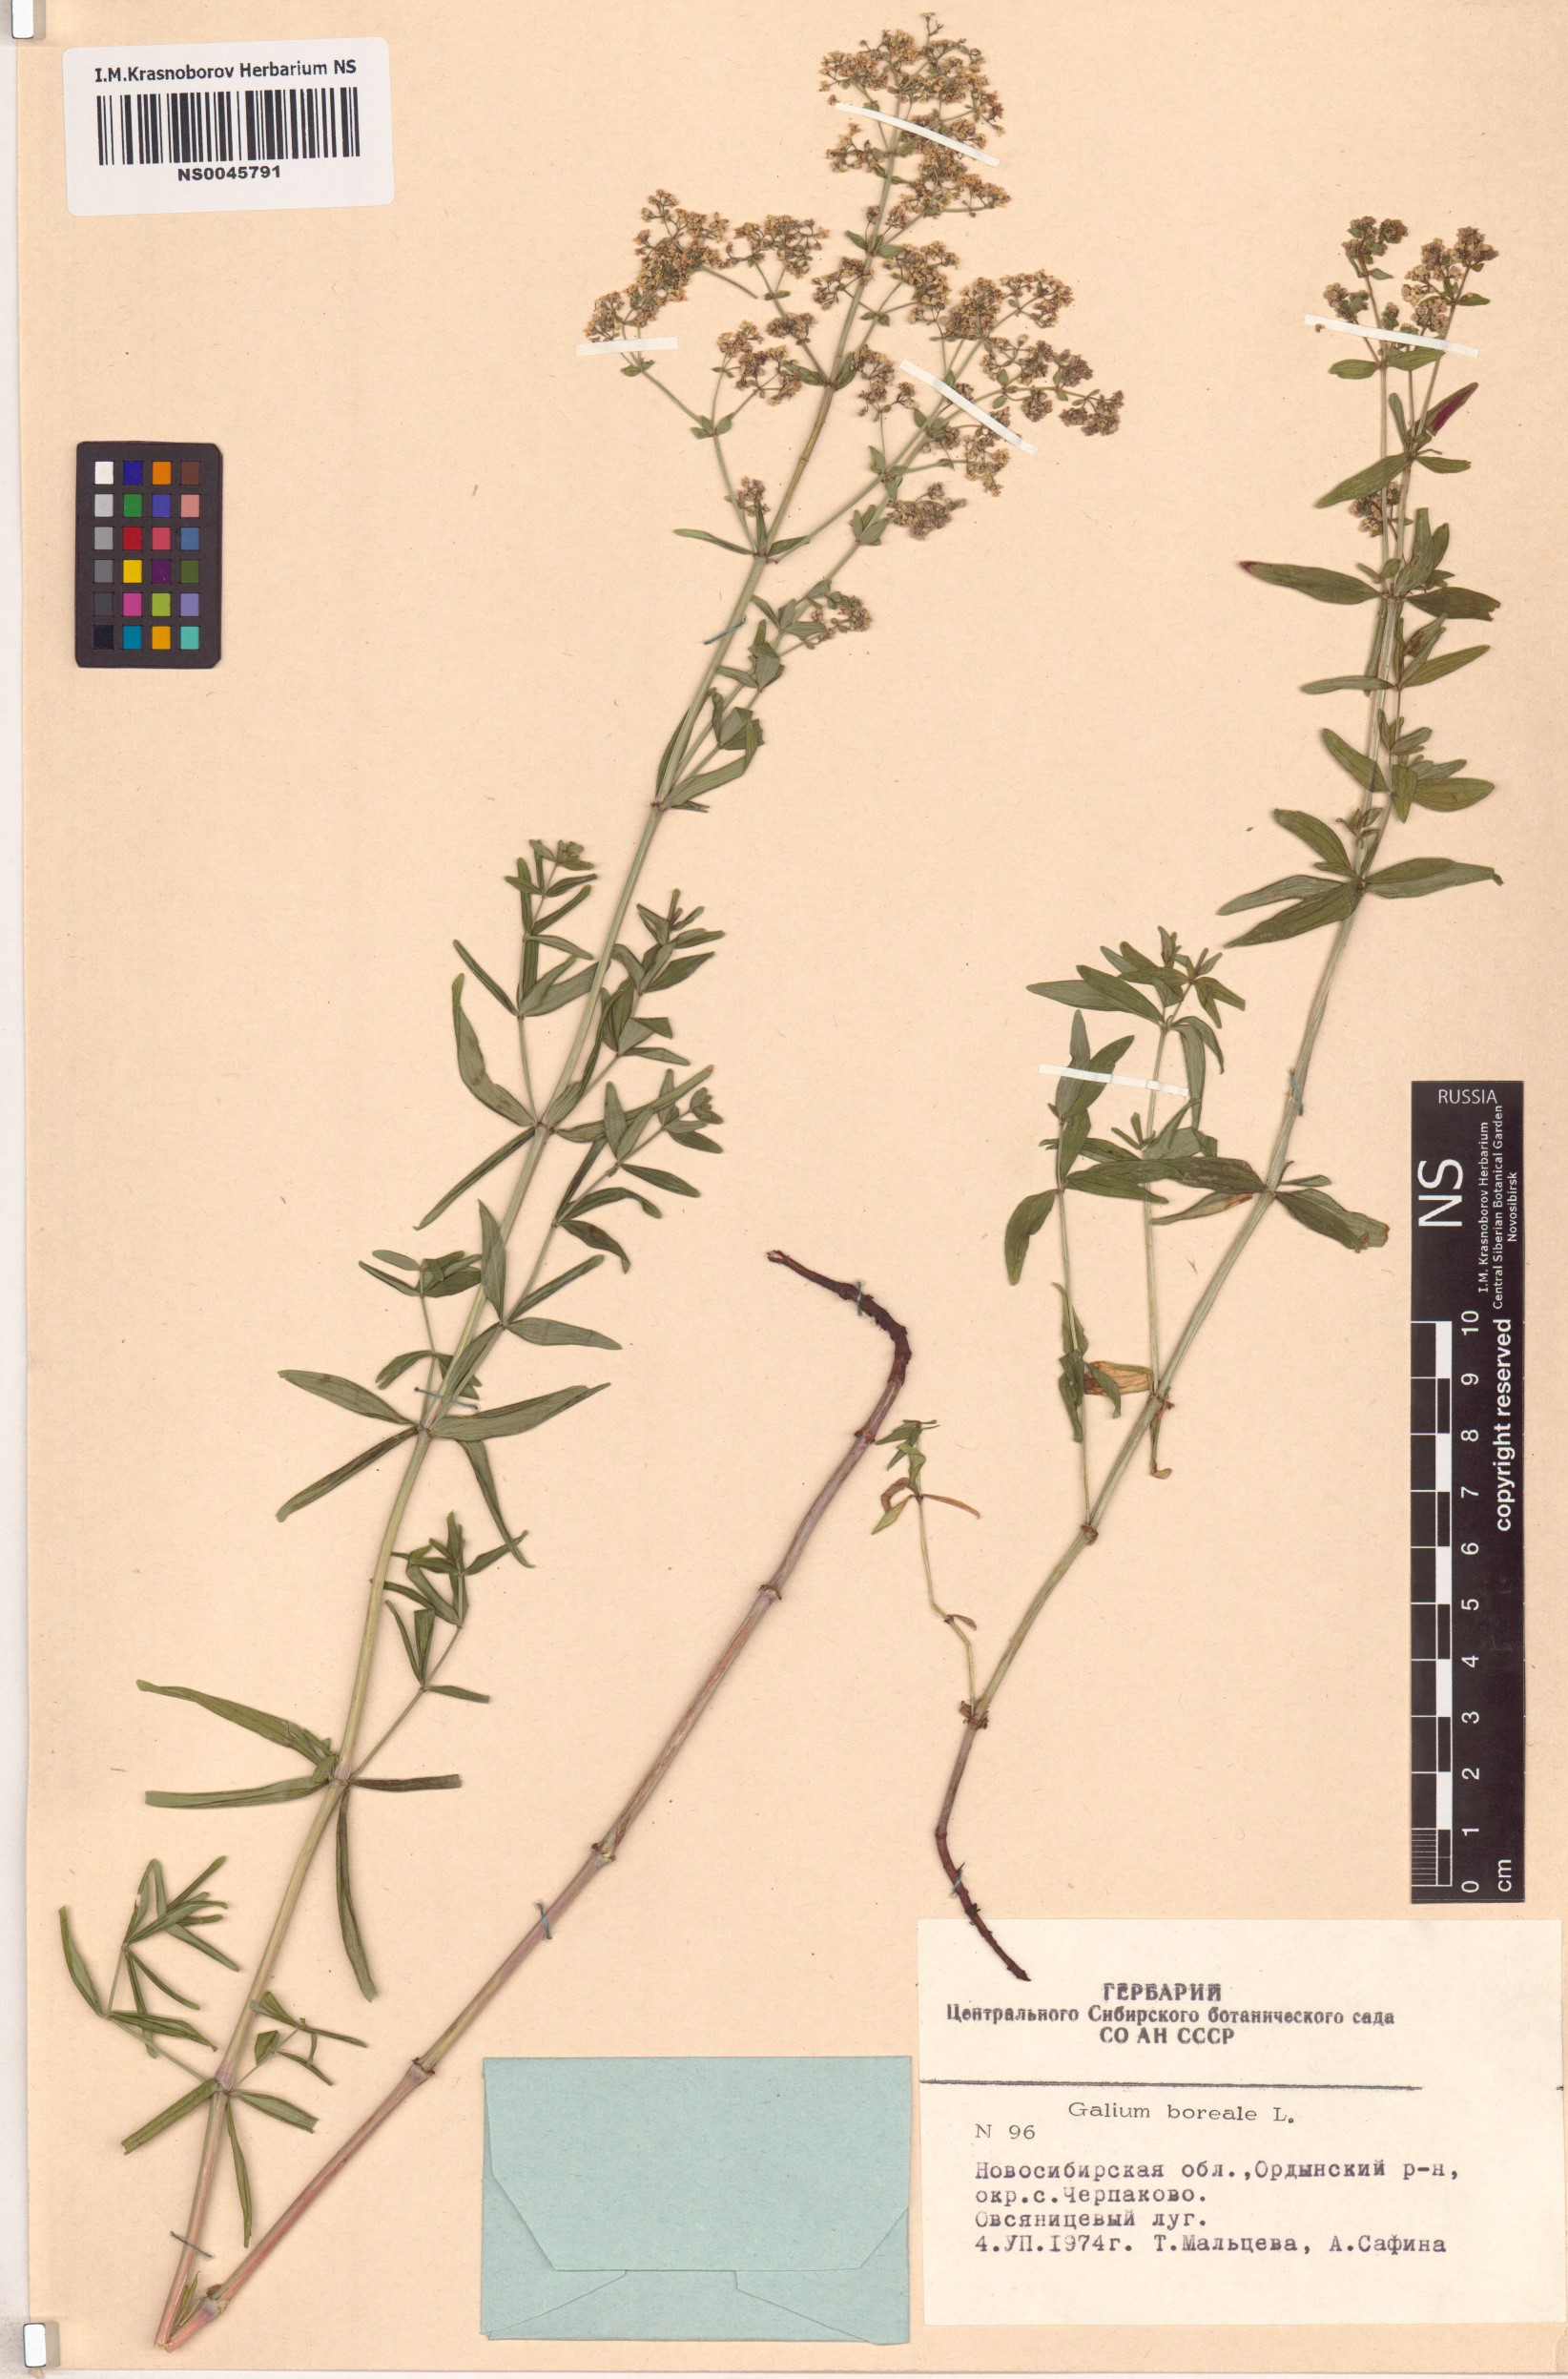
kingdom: Plantae
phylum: Tracheophyta
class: Magnoliopsida
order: Gentianales
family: Rubiaceae
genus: Galium
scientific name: Galium boreale
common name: Northern bedstraw
